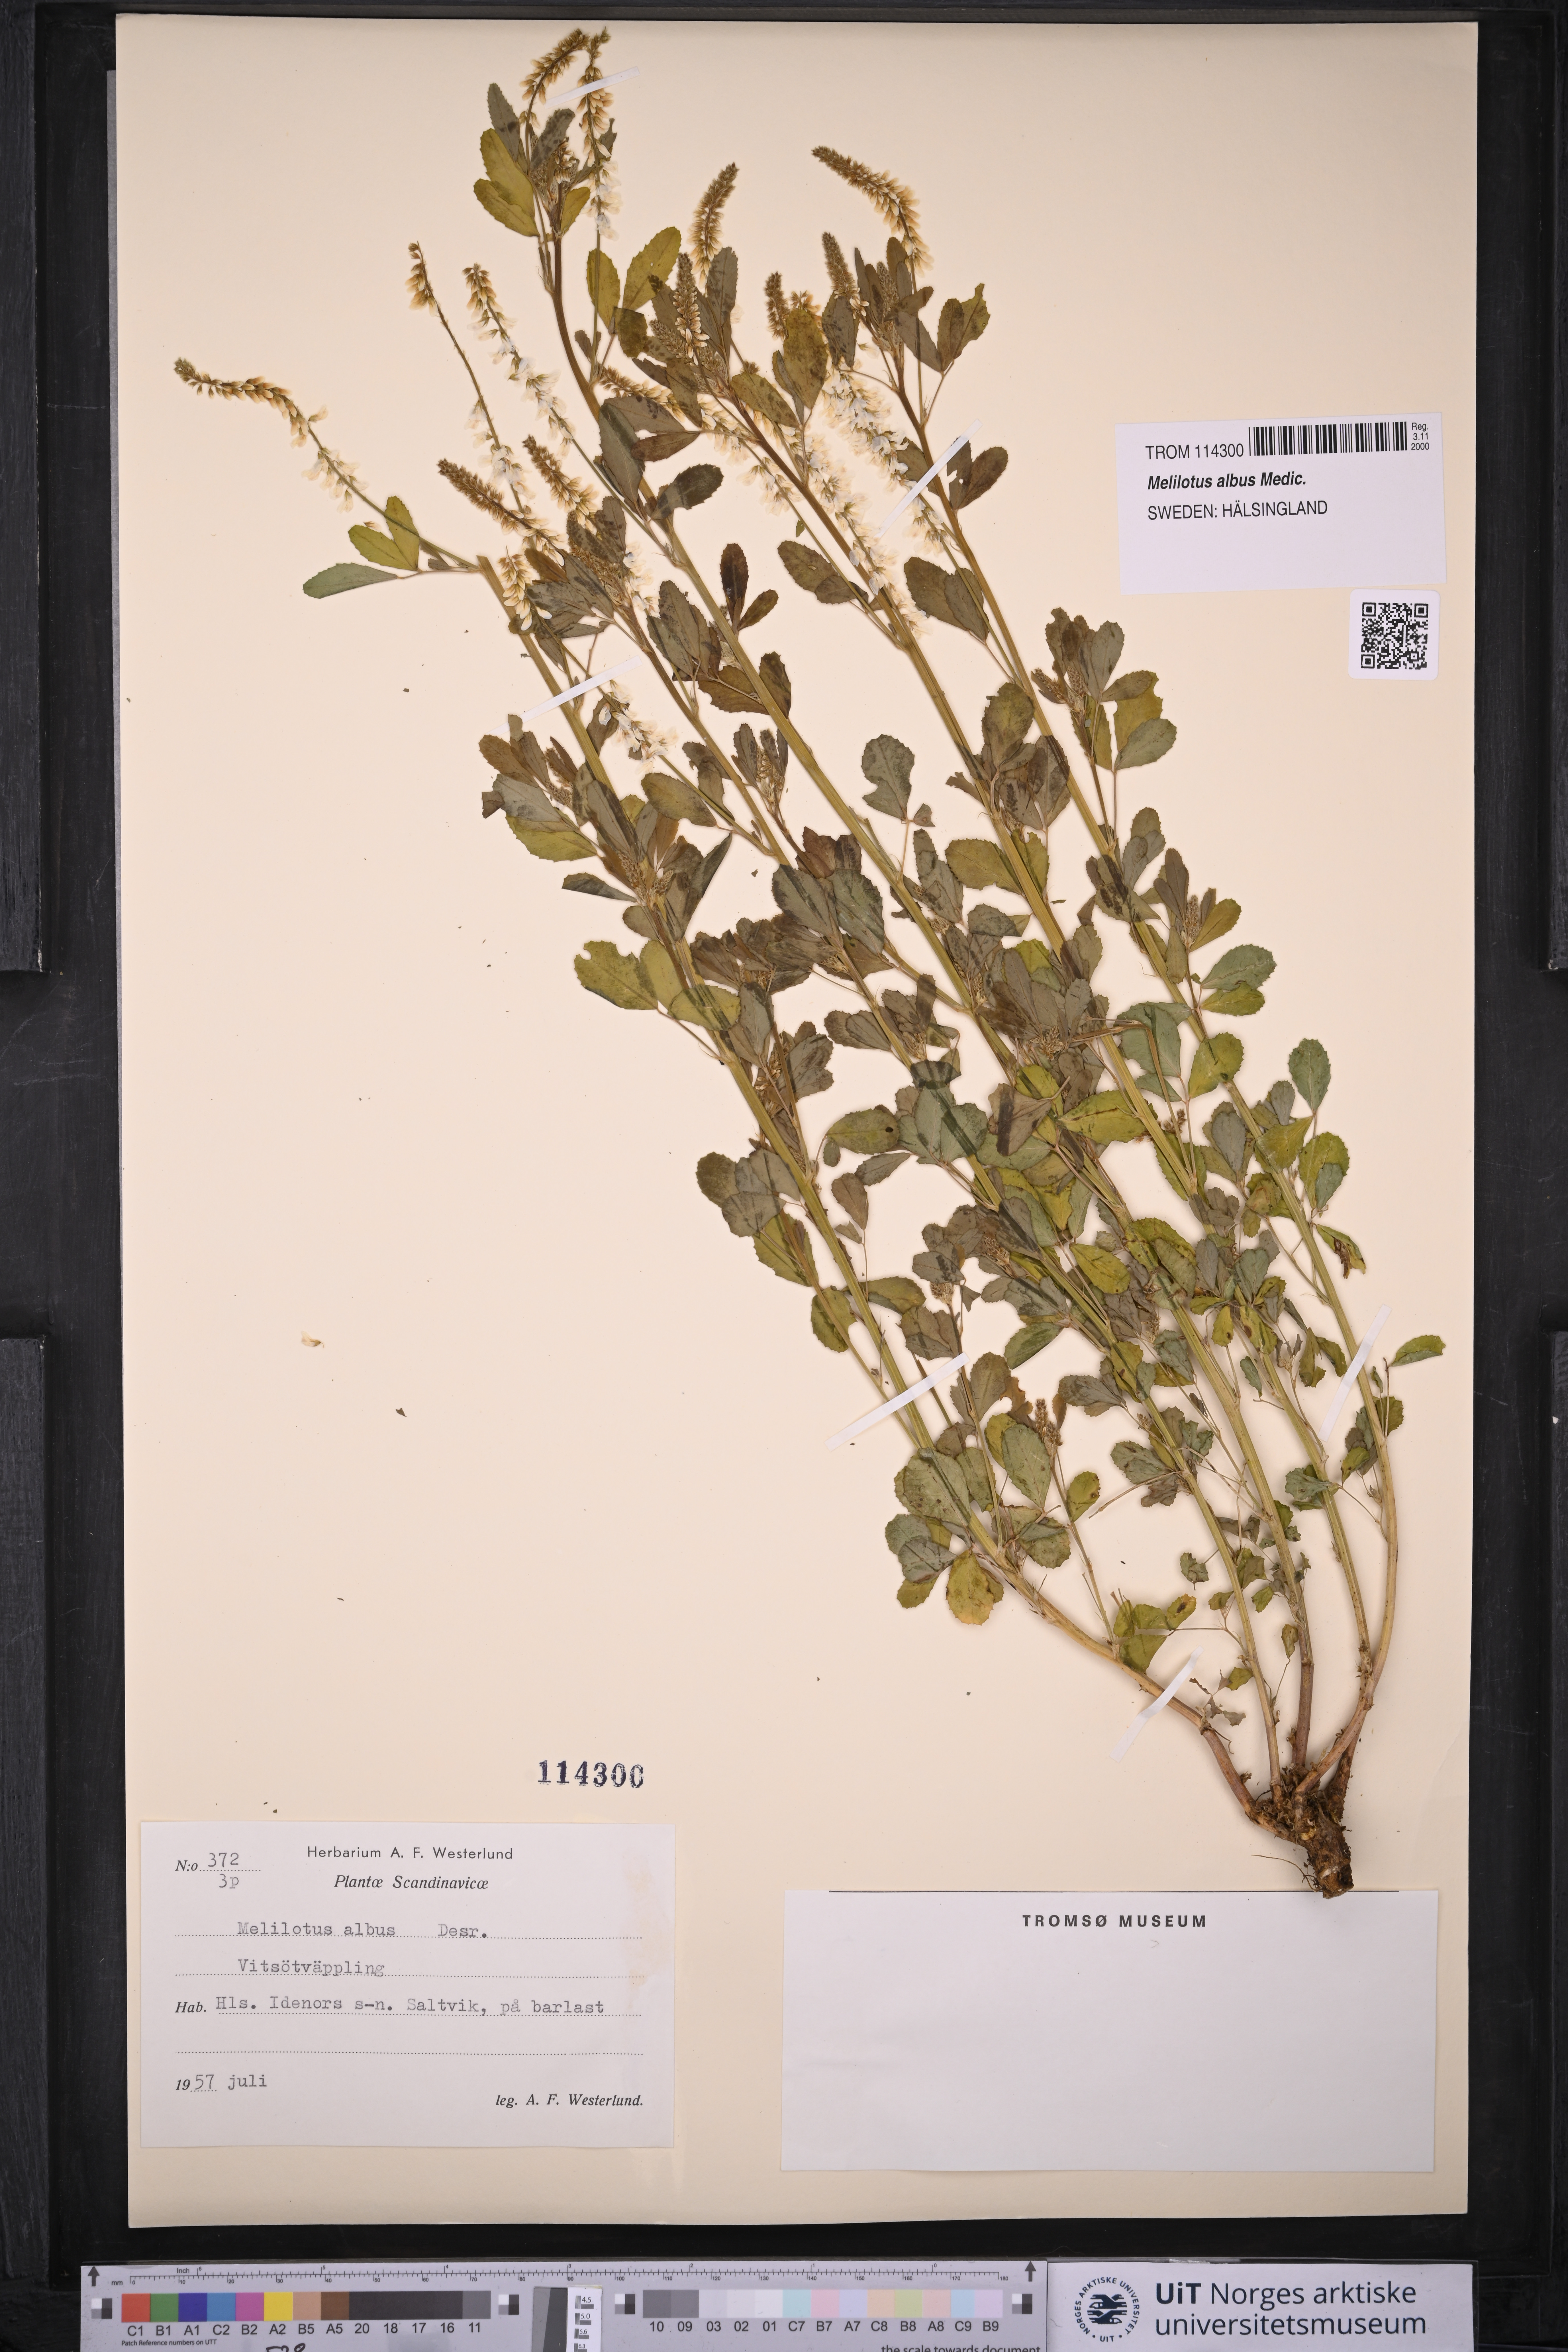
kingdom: Plantae
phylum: Tracheophyta
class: Magnoliopsida
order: Fabales
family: Fabaceae
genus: Melilotus
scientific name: Melilotus albus
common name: White melilot
